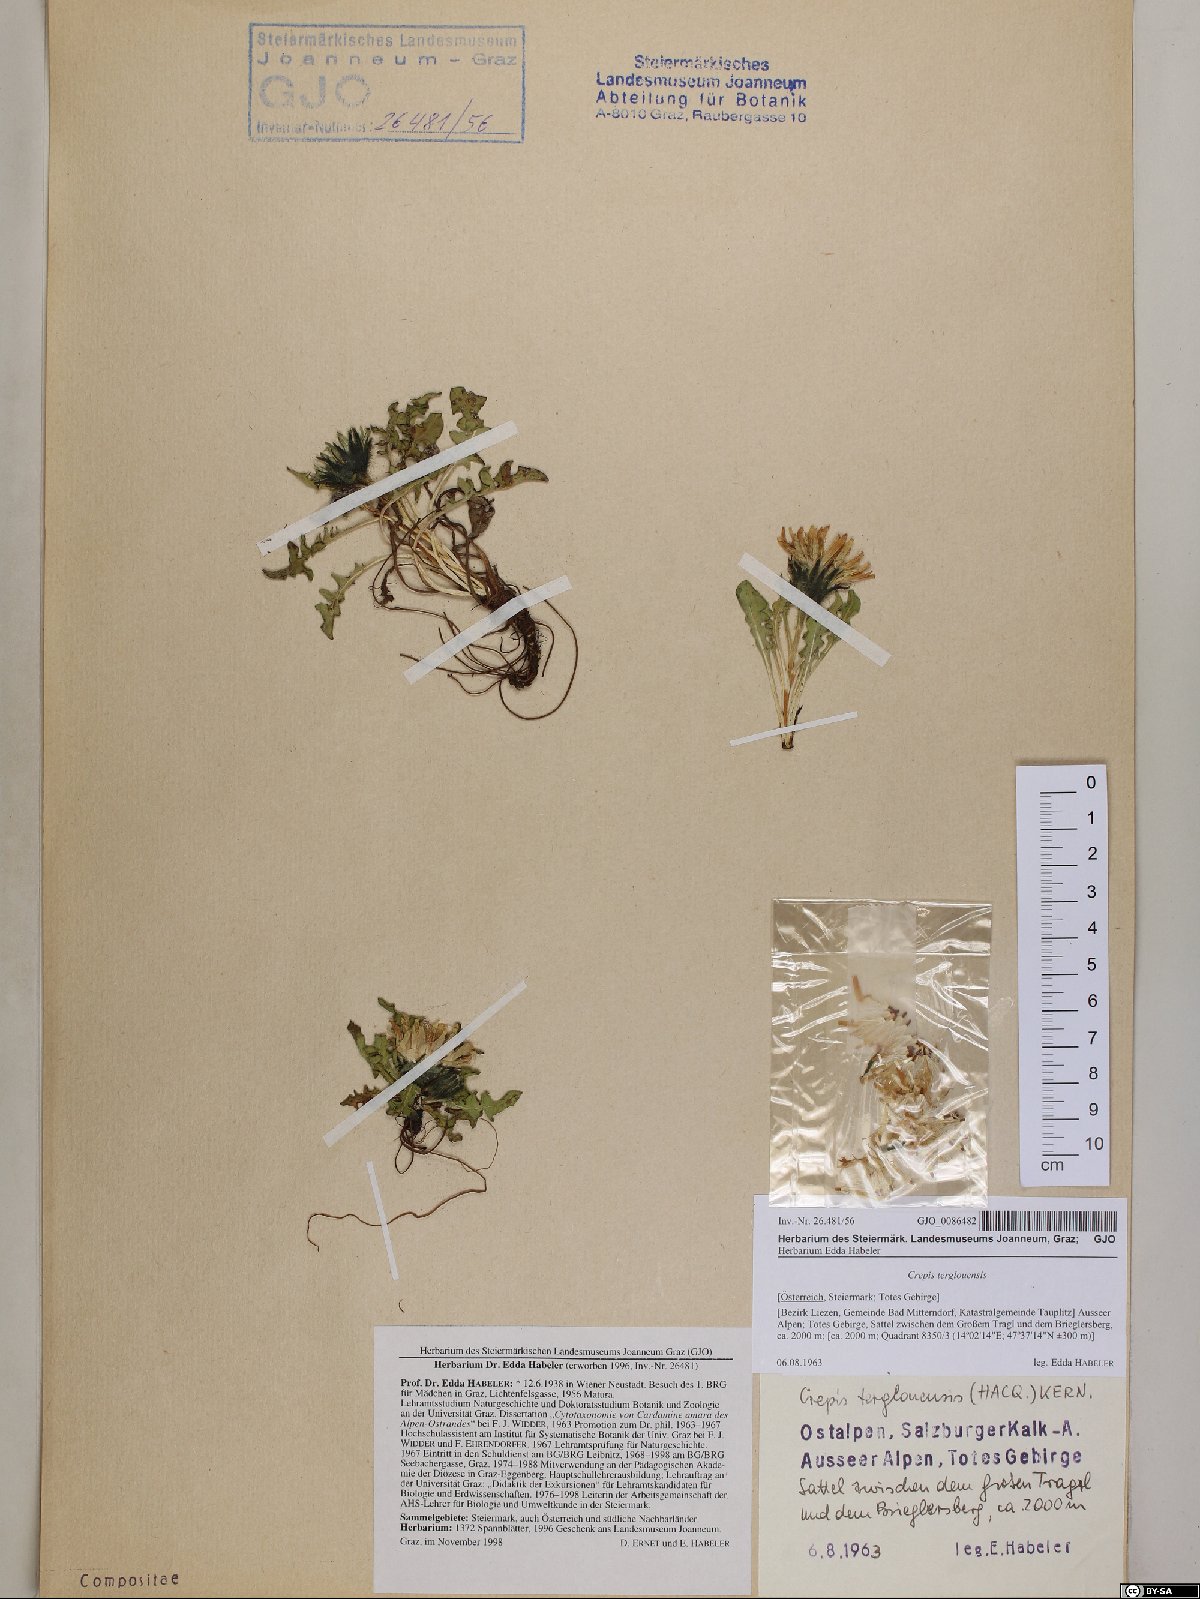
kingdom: Plantae
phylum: Tracheophyta
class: Magnoliopsida
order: Asterales
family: Asteraceae
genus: Crepis
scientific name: Crepis terglouensis
